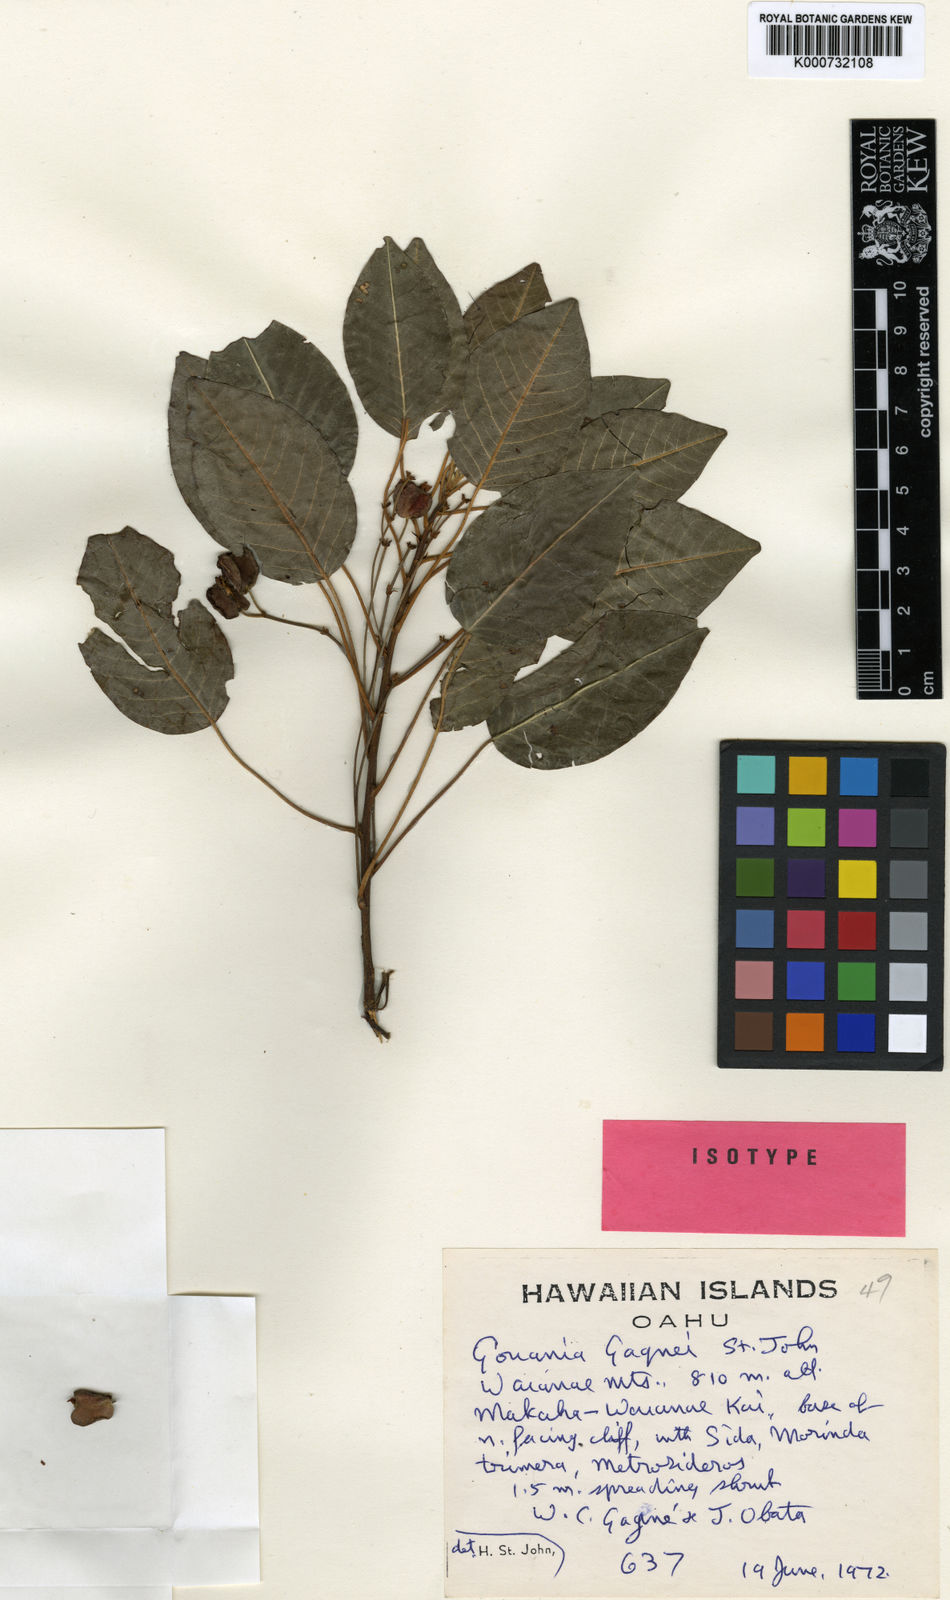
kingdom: Plantae
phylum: Tracheophyta
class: Magnoliopsida
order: Rosales
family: Rhamnaceae
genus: Gouania
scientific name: Gouania meyenii
